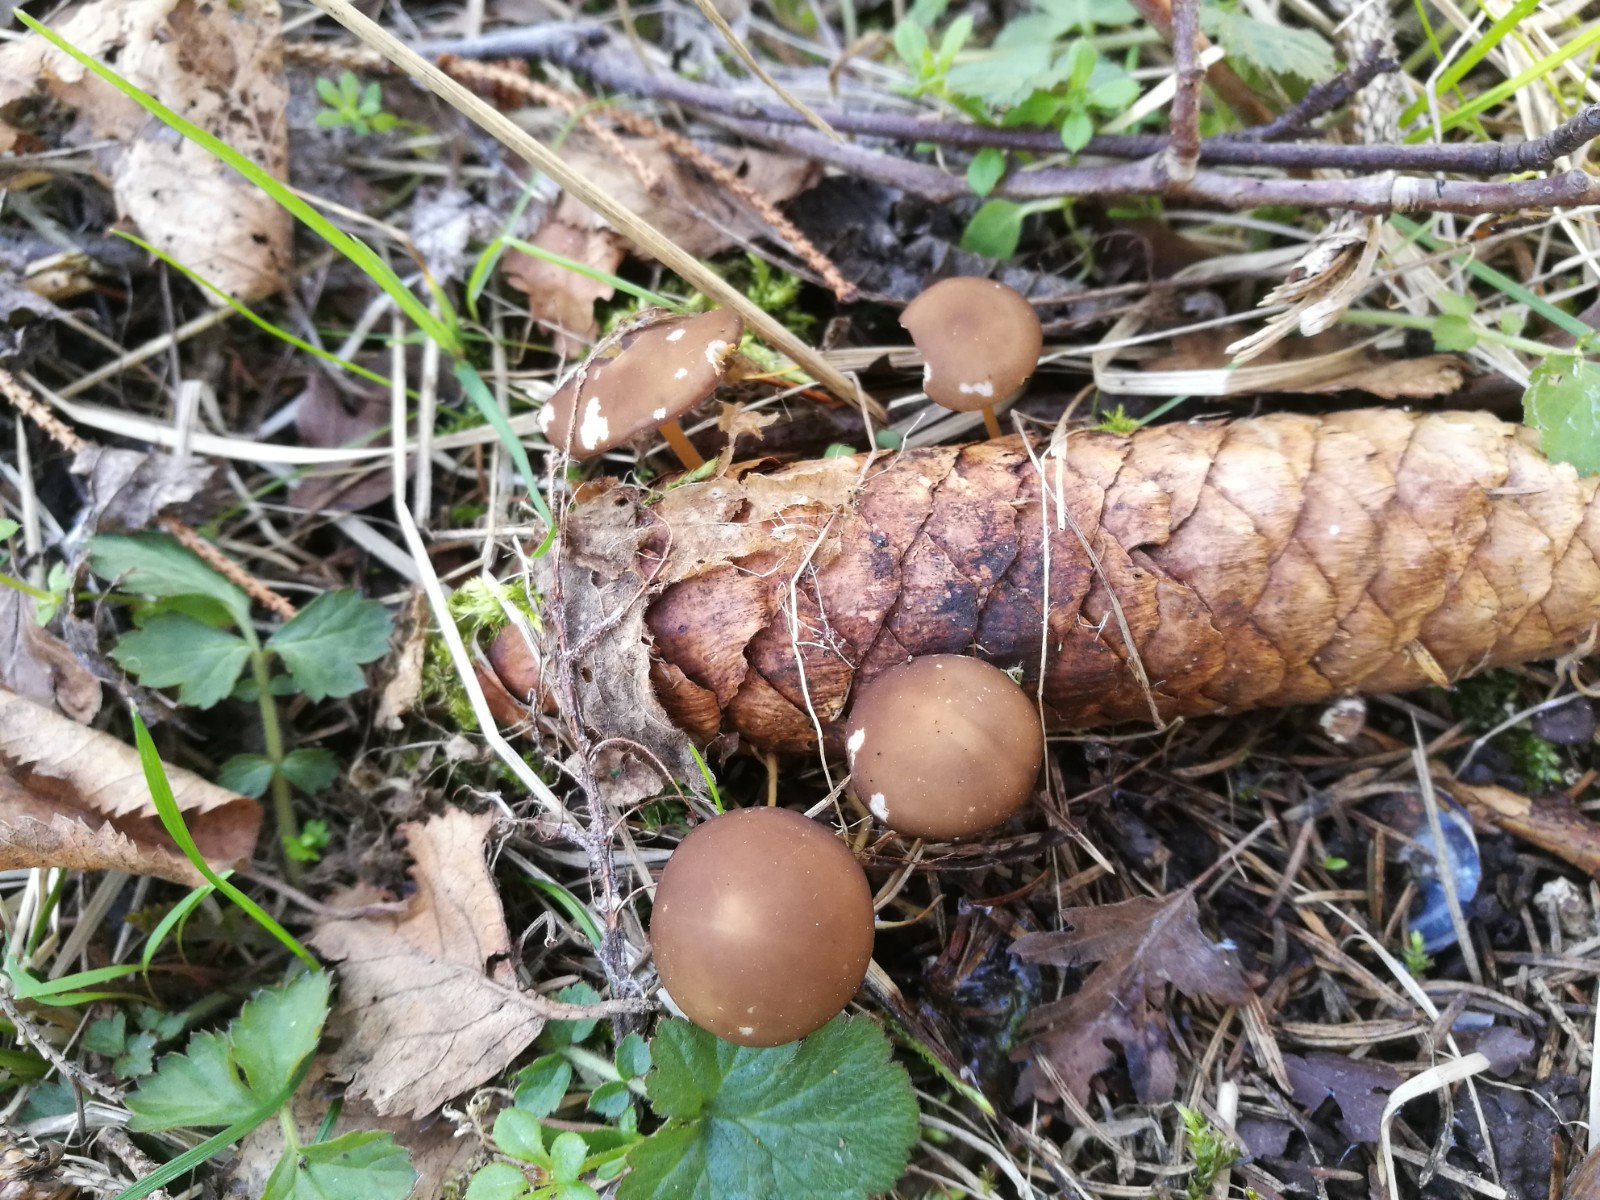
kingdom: Fungi
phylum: Basidiomycota
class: Agaricomycetes
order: Agaricales
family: Physalacriaceae
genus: Strobilurus
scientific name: Strobilurus esculentus
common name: gran-koglehat
